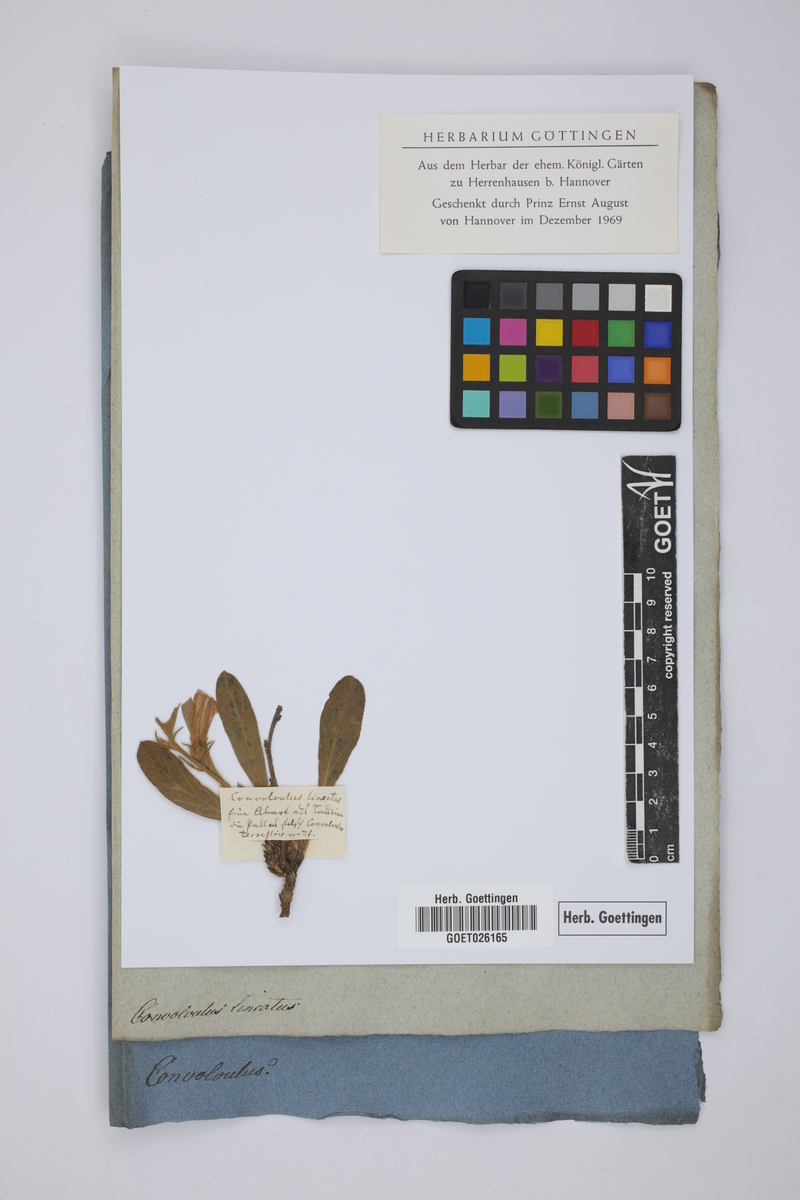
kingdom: Plantae
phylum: Tracheophyta
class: Magnoliopsida
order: Solanales
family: Convolvulaceae
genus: Convolvulus
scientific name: Convolvulus lineatus
